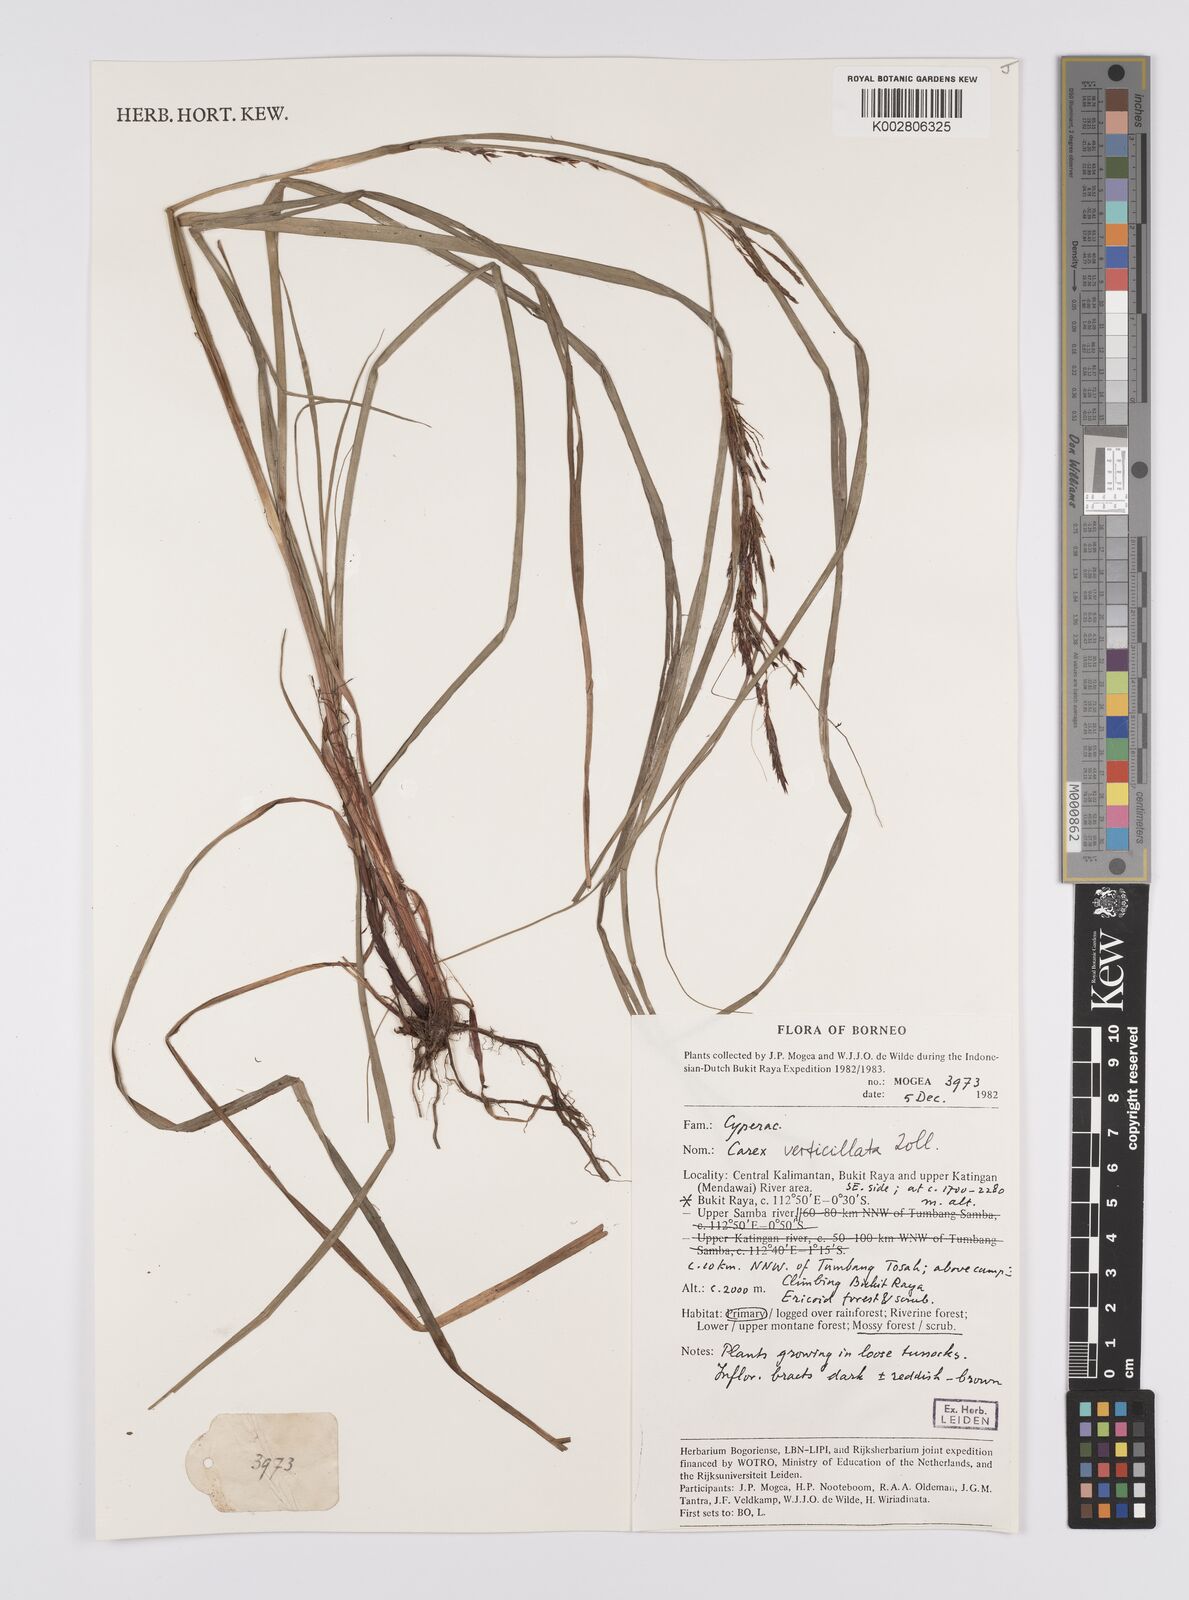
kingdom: Plantae
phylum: Tracheophyta
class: Liliopsida
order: Poales
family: Cyperaceae
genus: Carex
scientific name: Carex verticillata
